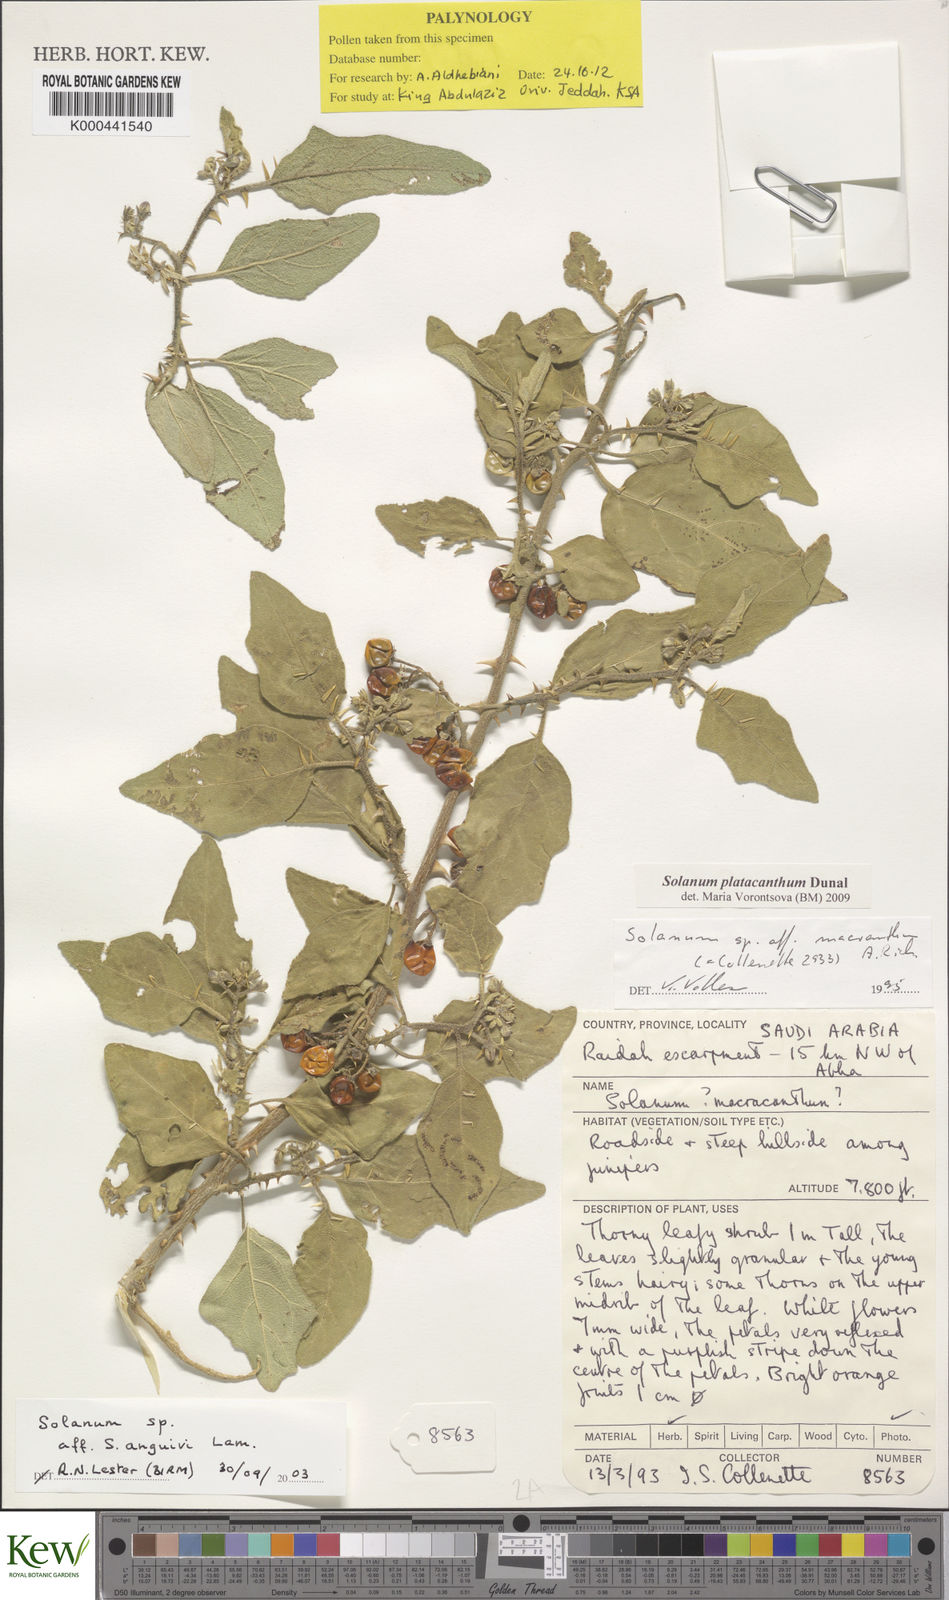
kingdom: Plantae
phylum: Tracheophyta
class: Magnoliopsida
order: Solanales
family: Solanaceae
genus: Solanum
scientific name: Solanum platacanthum
